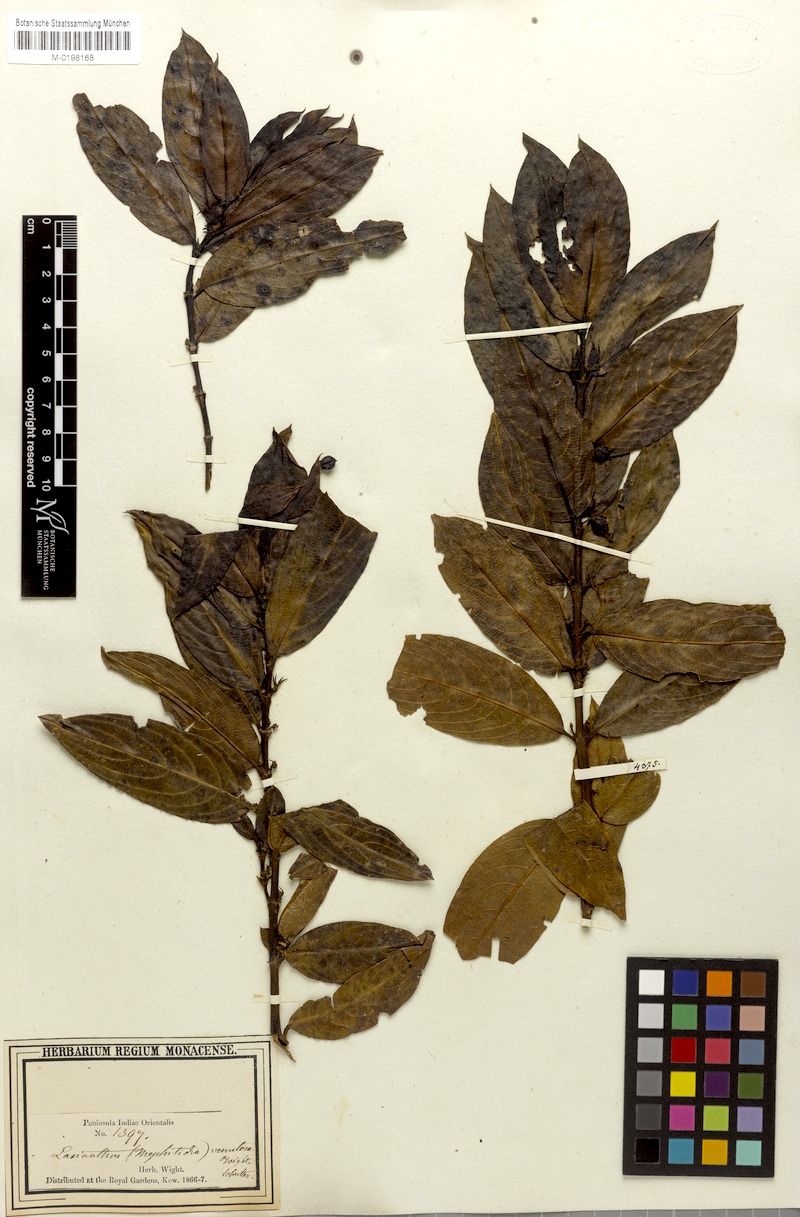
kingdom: Plantae
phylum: Tracheophyta
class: Magnoliopsida
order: Gentianales
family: Rubiaceae
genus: Lasianthus
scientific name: Lasianthus venulosus
